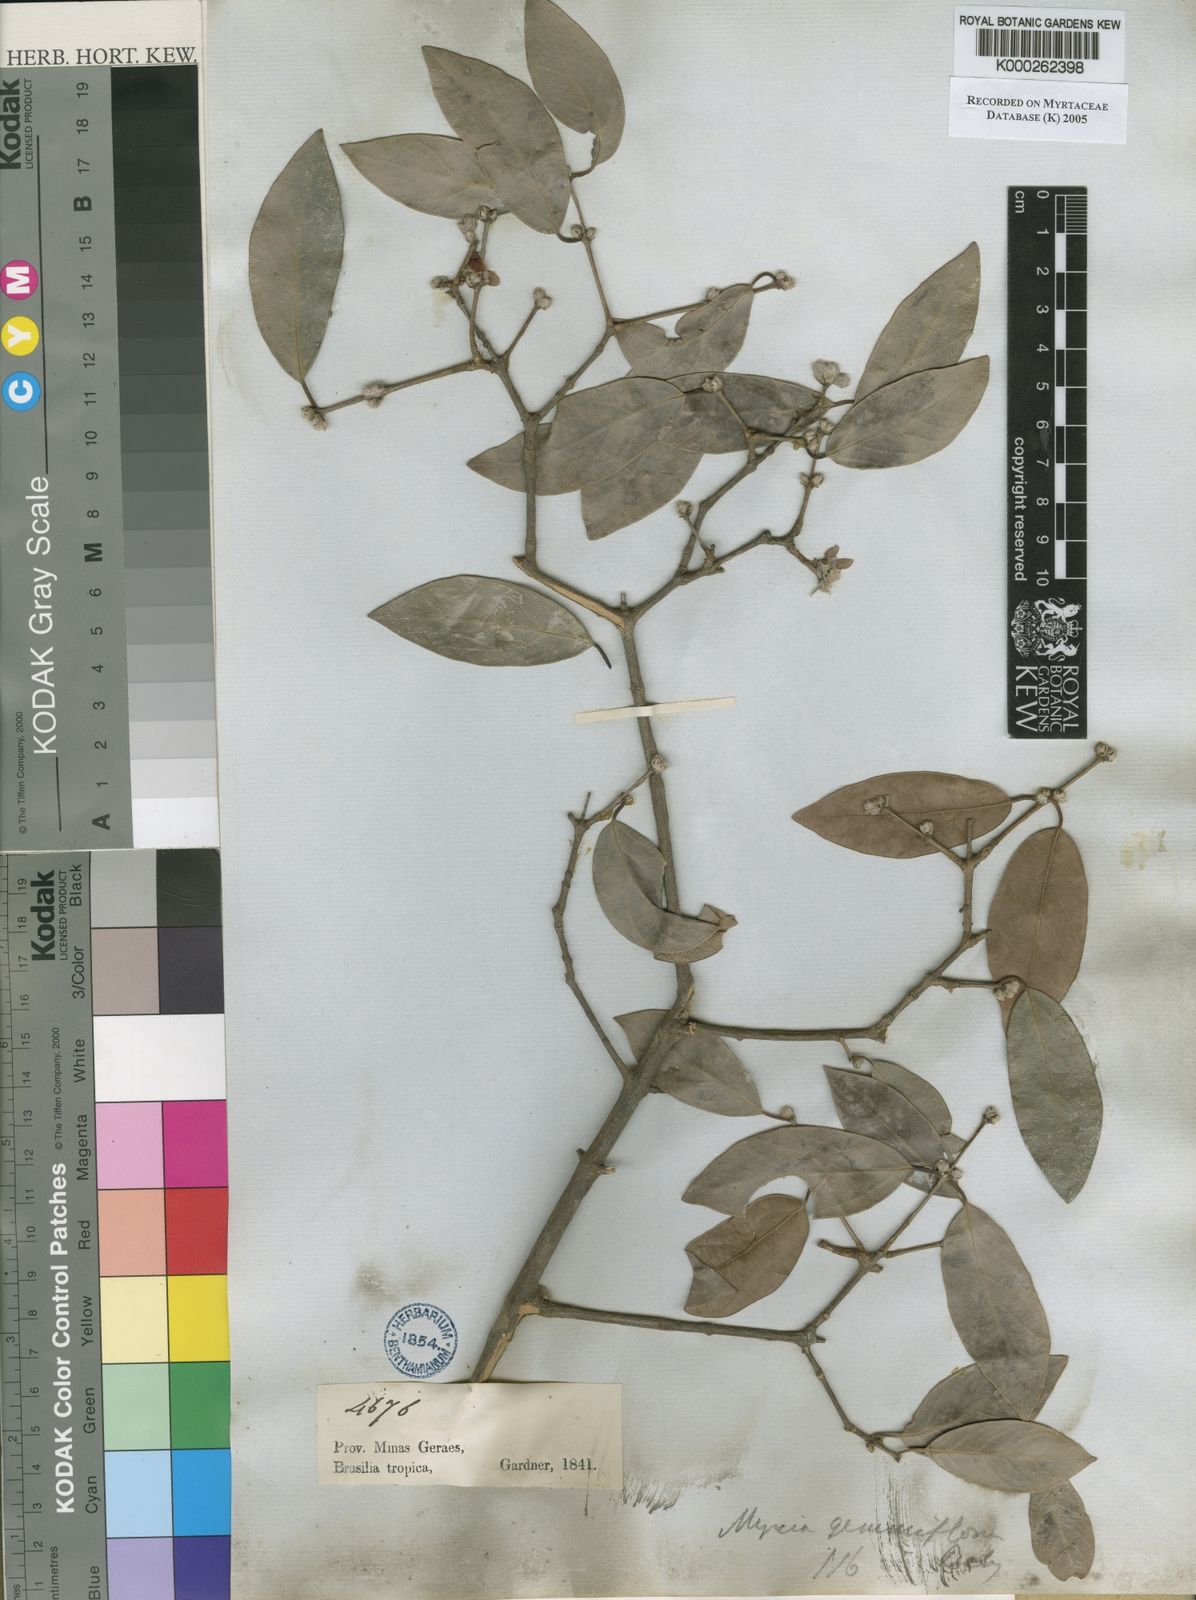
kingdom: Plantae
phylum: Tracheophyta
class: Magnoliopsida
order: Myrtales
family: Myrtaceae
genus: Eugenia
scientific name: Eugenia myrcianthes
